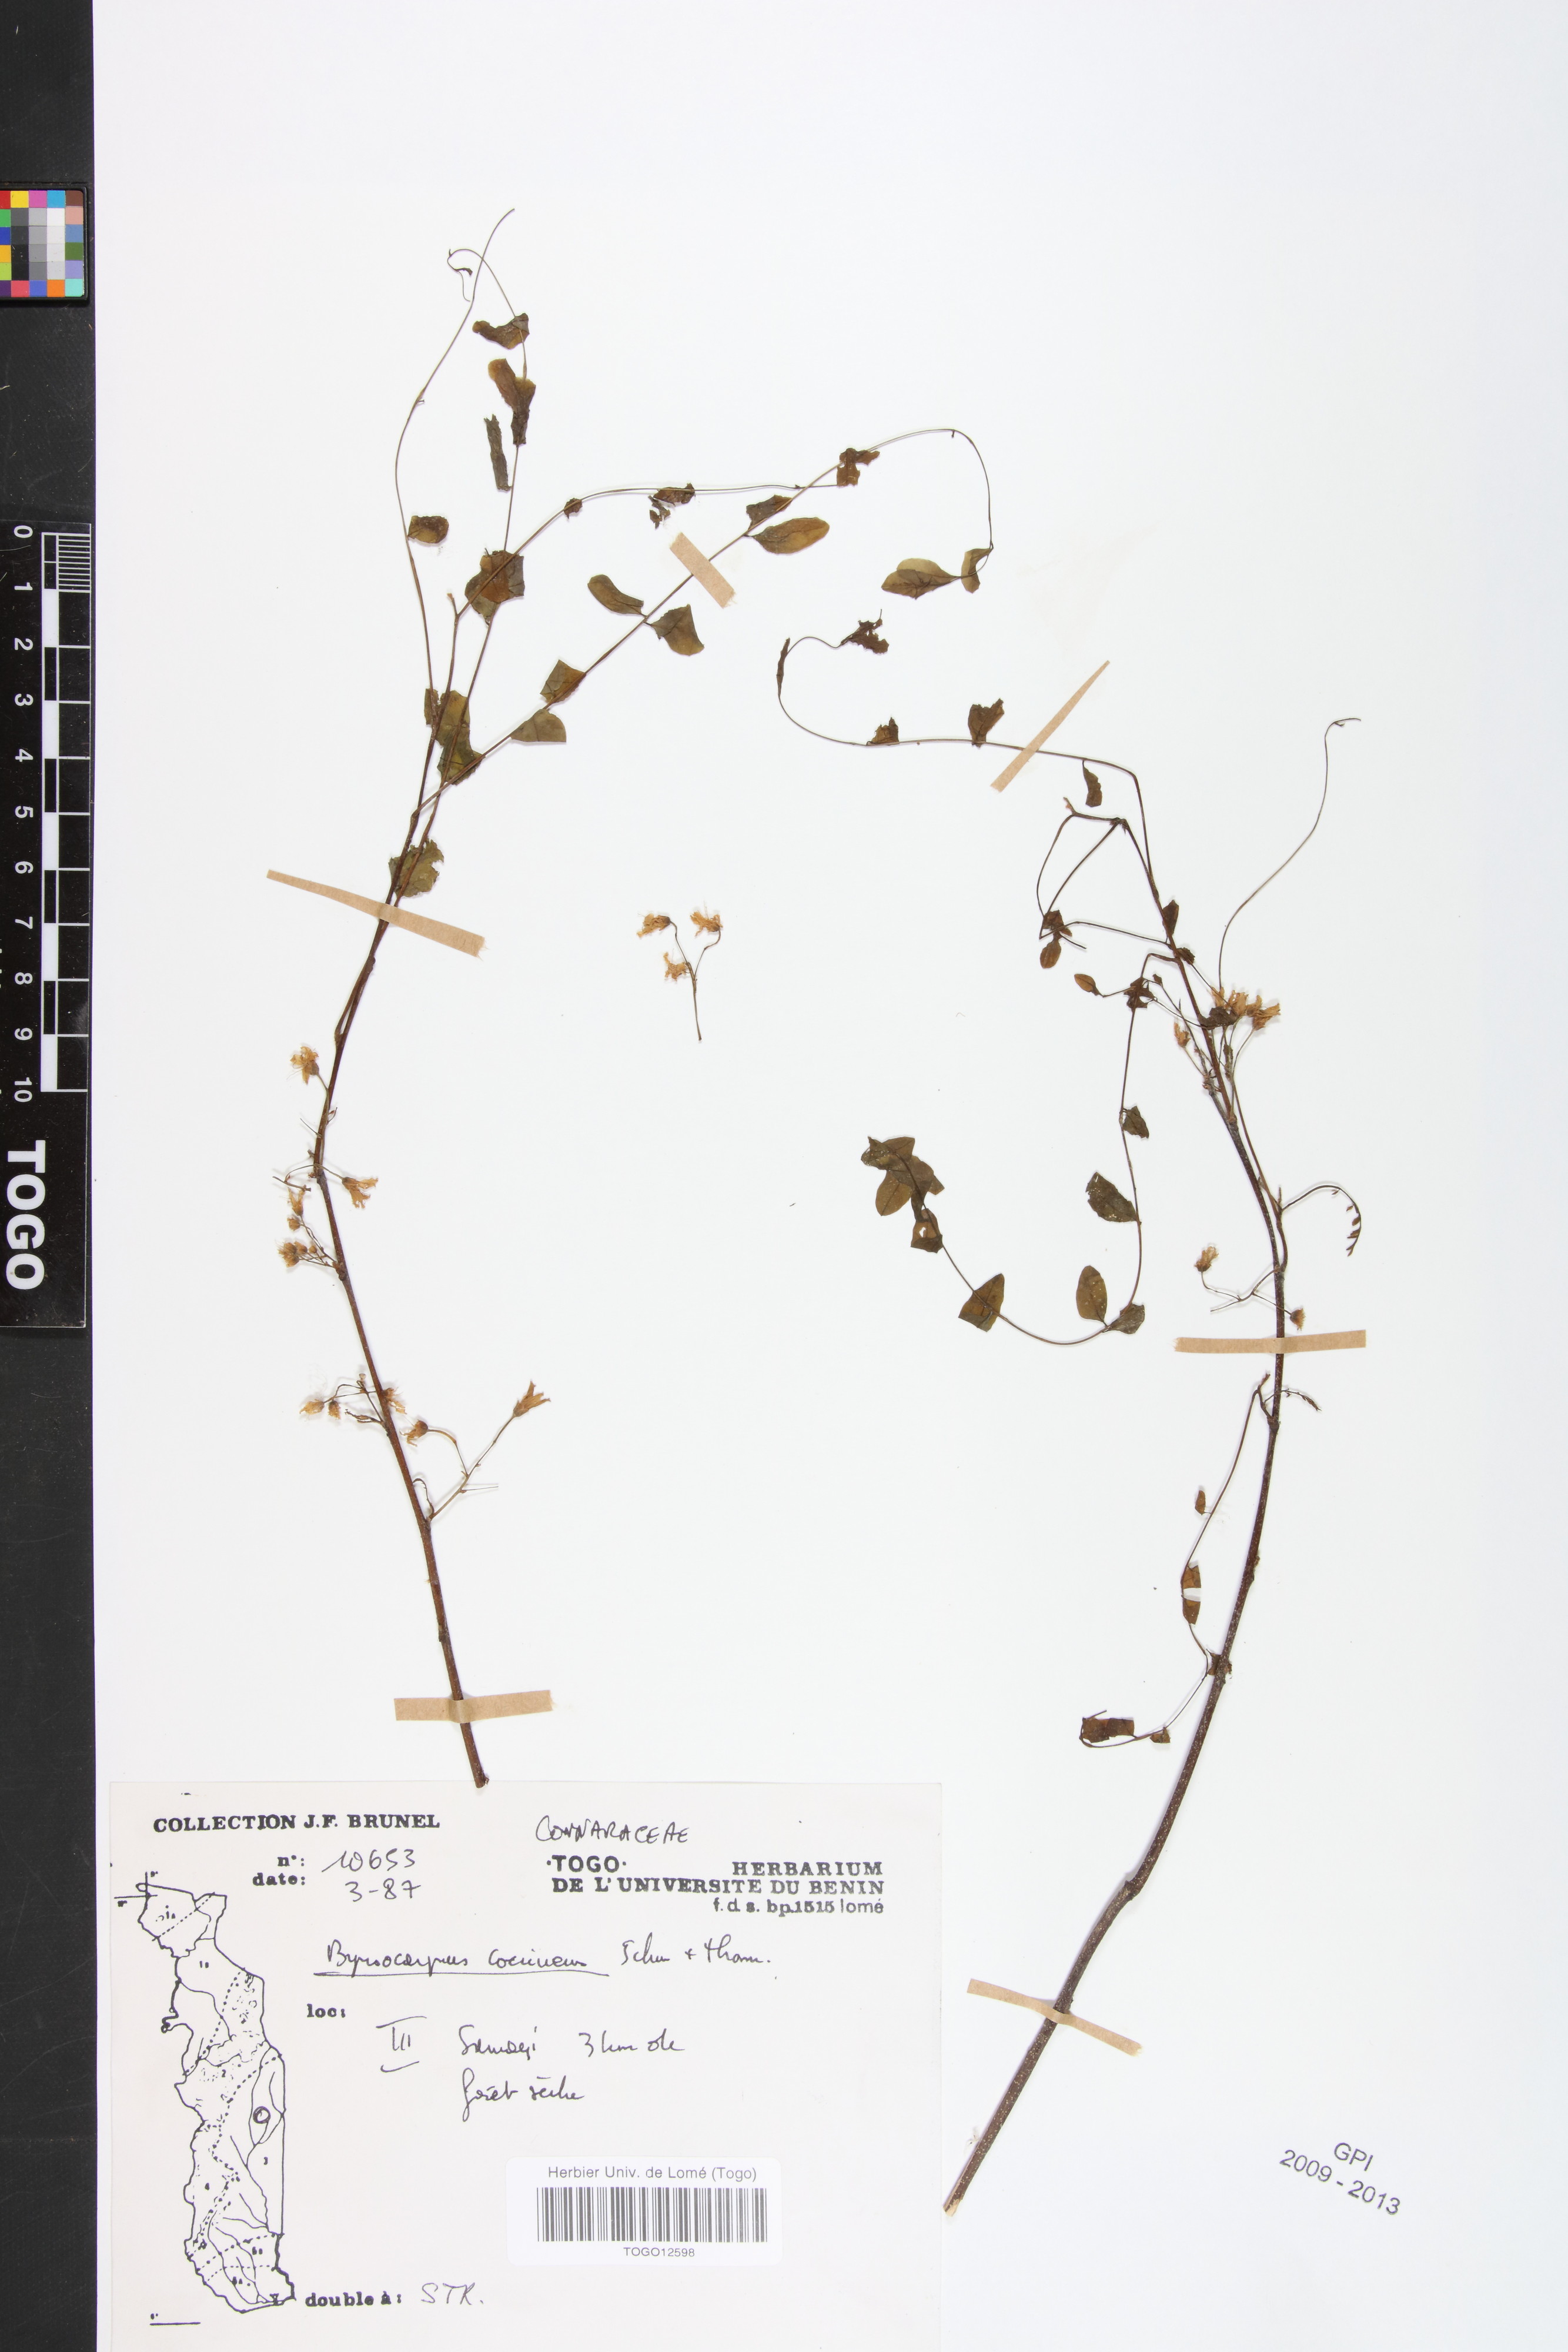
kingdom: Plantae
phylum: Tracheophyta
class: Magnoliopsida
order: Oxalidales
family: Connaraceae
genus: Rourea
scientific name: Rourea coccinea
